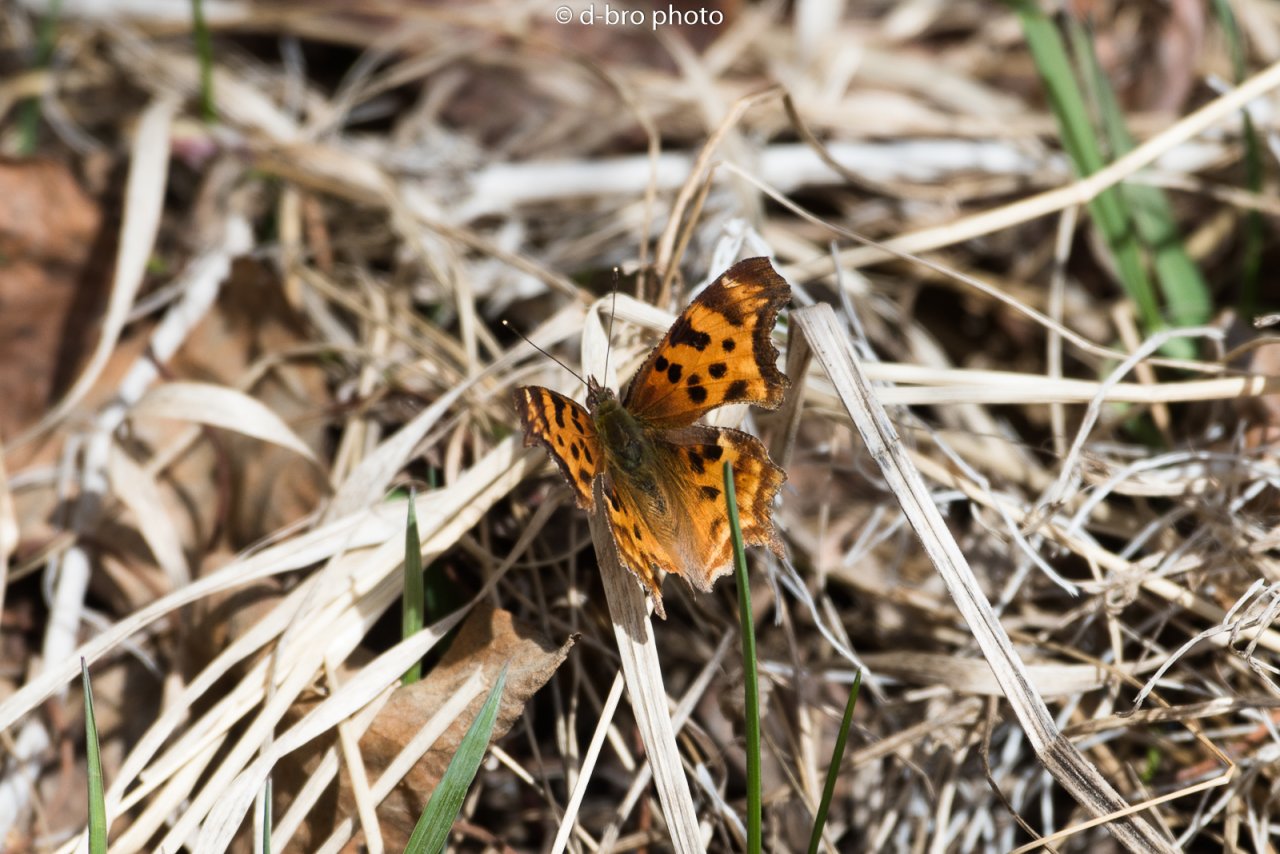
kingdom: Animalia
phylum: Arthropoda
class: Insecta
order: Lepidoptera
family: Nymphalidae
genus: Polygonia
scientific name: Polygonia faunus
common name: Green Comma
